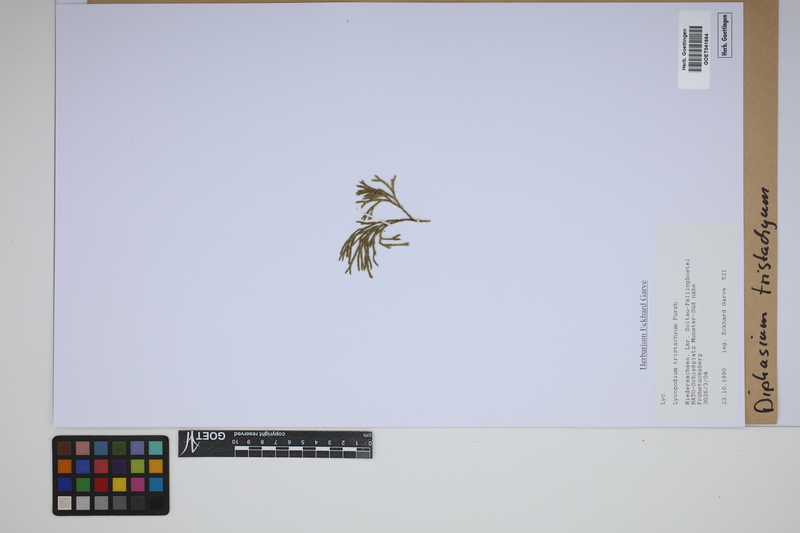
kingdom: Plantae
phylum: Tracheophyta
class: Lycopodiopsida
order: Lycopodiales
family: Lycopodiaceae
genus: Diphasiastrum
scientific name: Diphasiastrum tristachyum
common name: Blue ground-cedar
